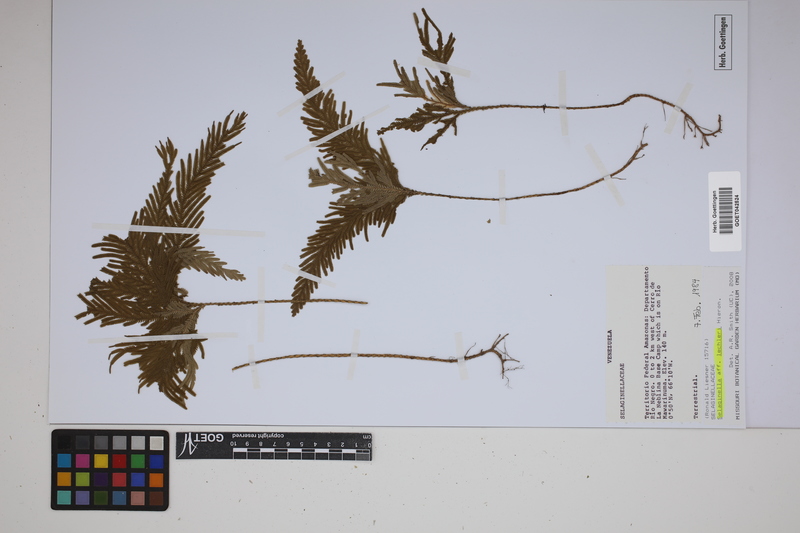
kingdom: Plantae
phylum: Tracheophyta
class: Lycopodiopsida
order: Selaginellales
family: Selaginellaceae
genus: Selaginella
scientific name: Selaginella lechleri
